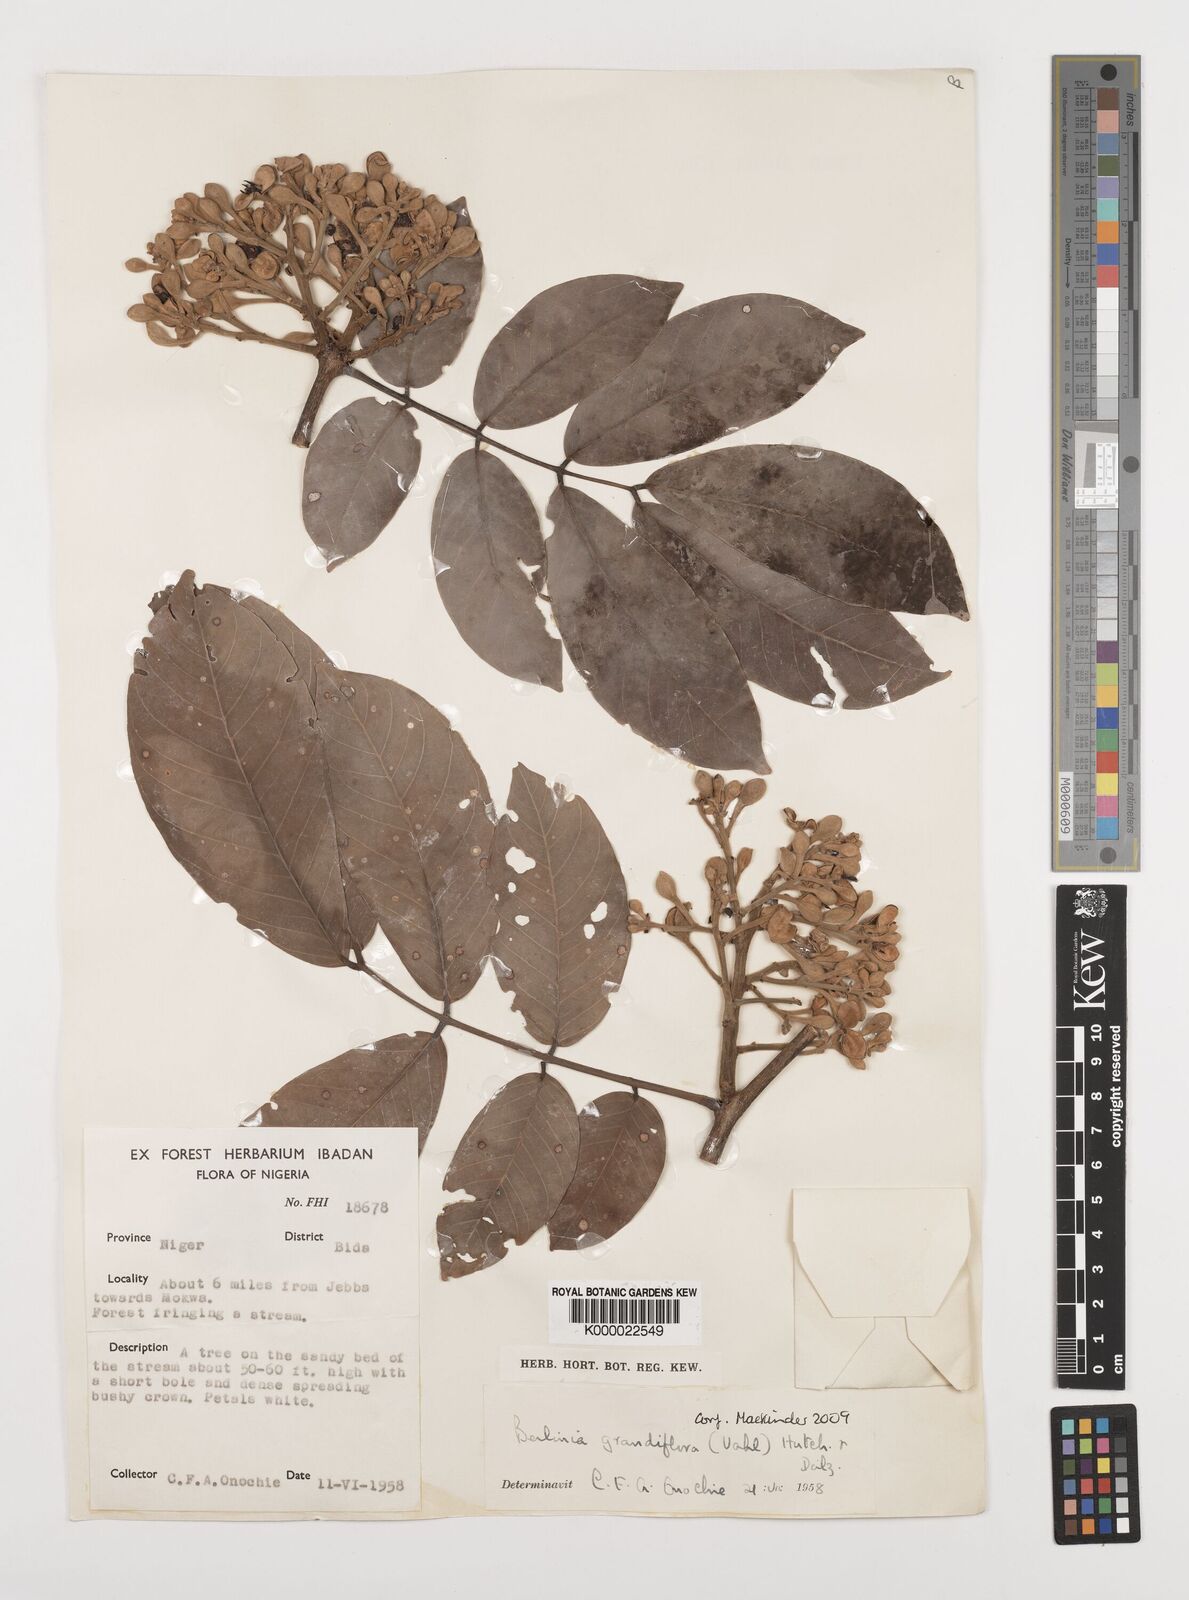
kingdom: Plantae
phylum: Tracheophyta
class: Magnoliopsida
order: Fabales
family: Fabaceae
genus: Berlinia
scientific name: Berlinia grandiflora
